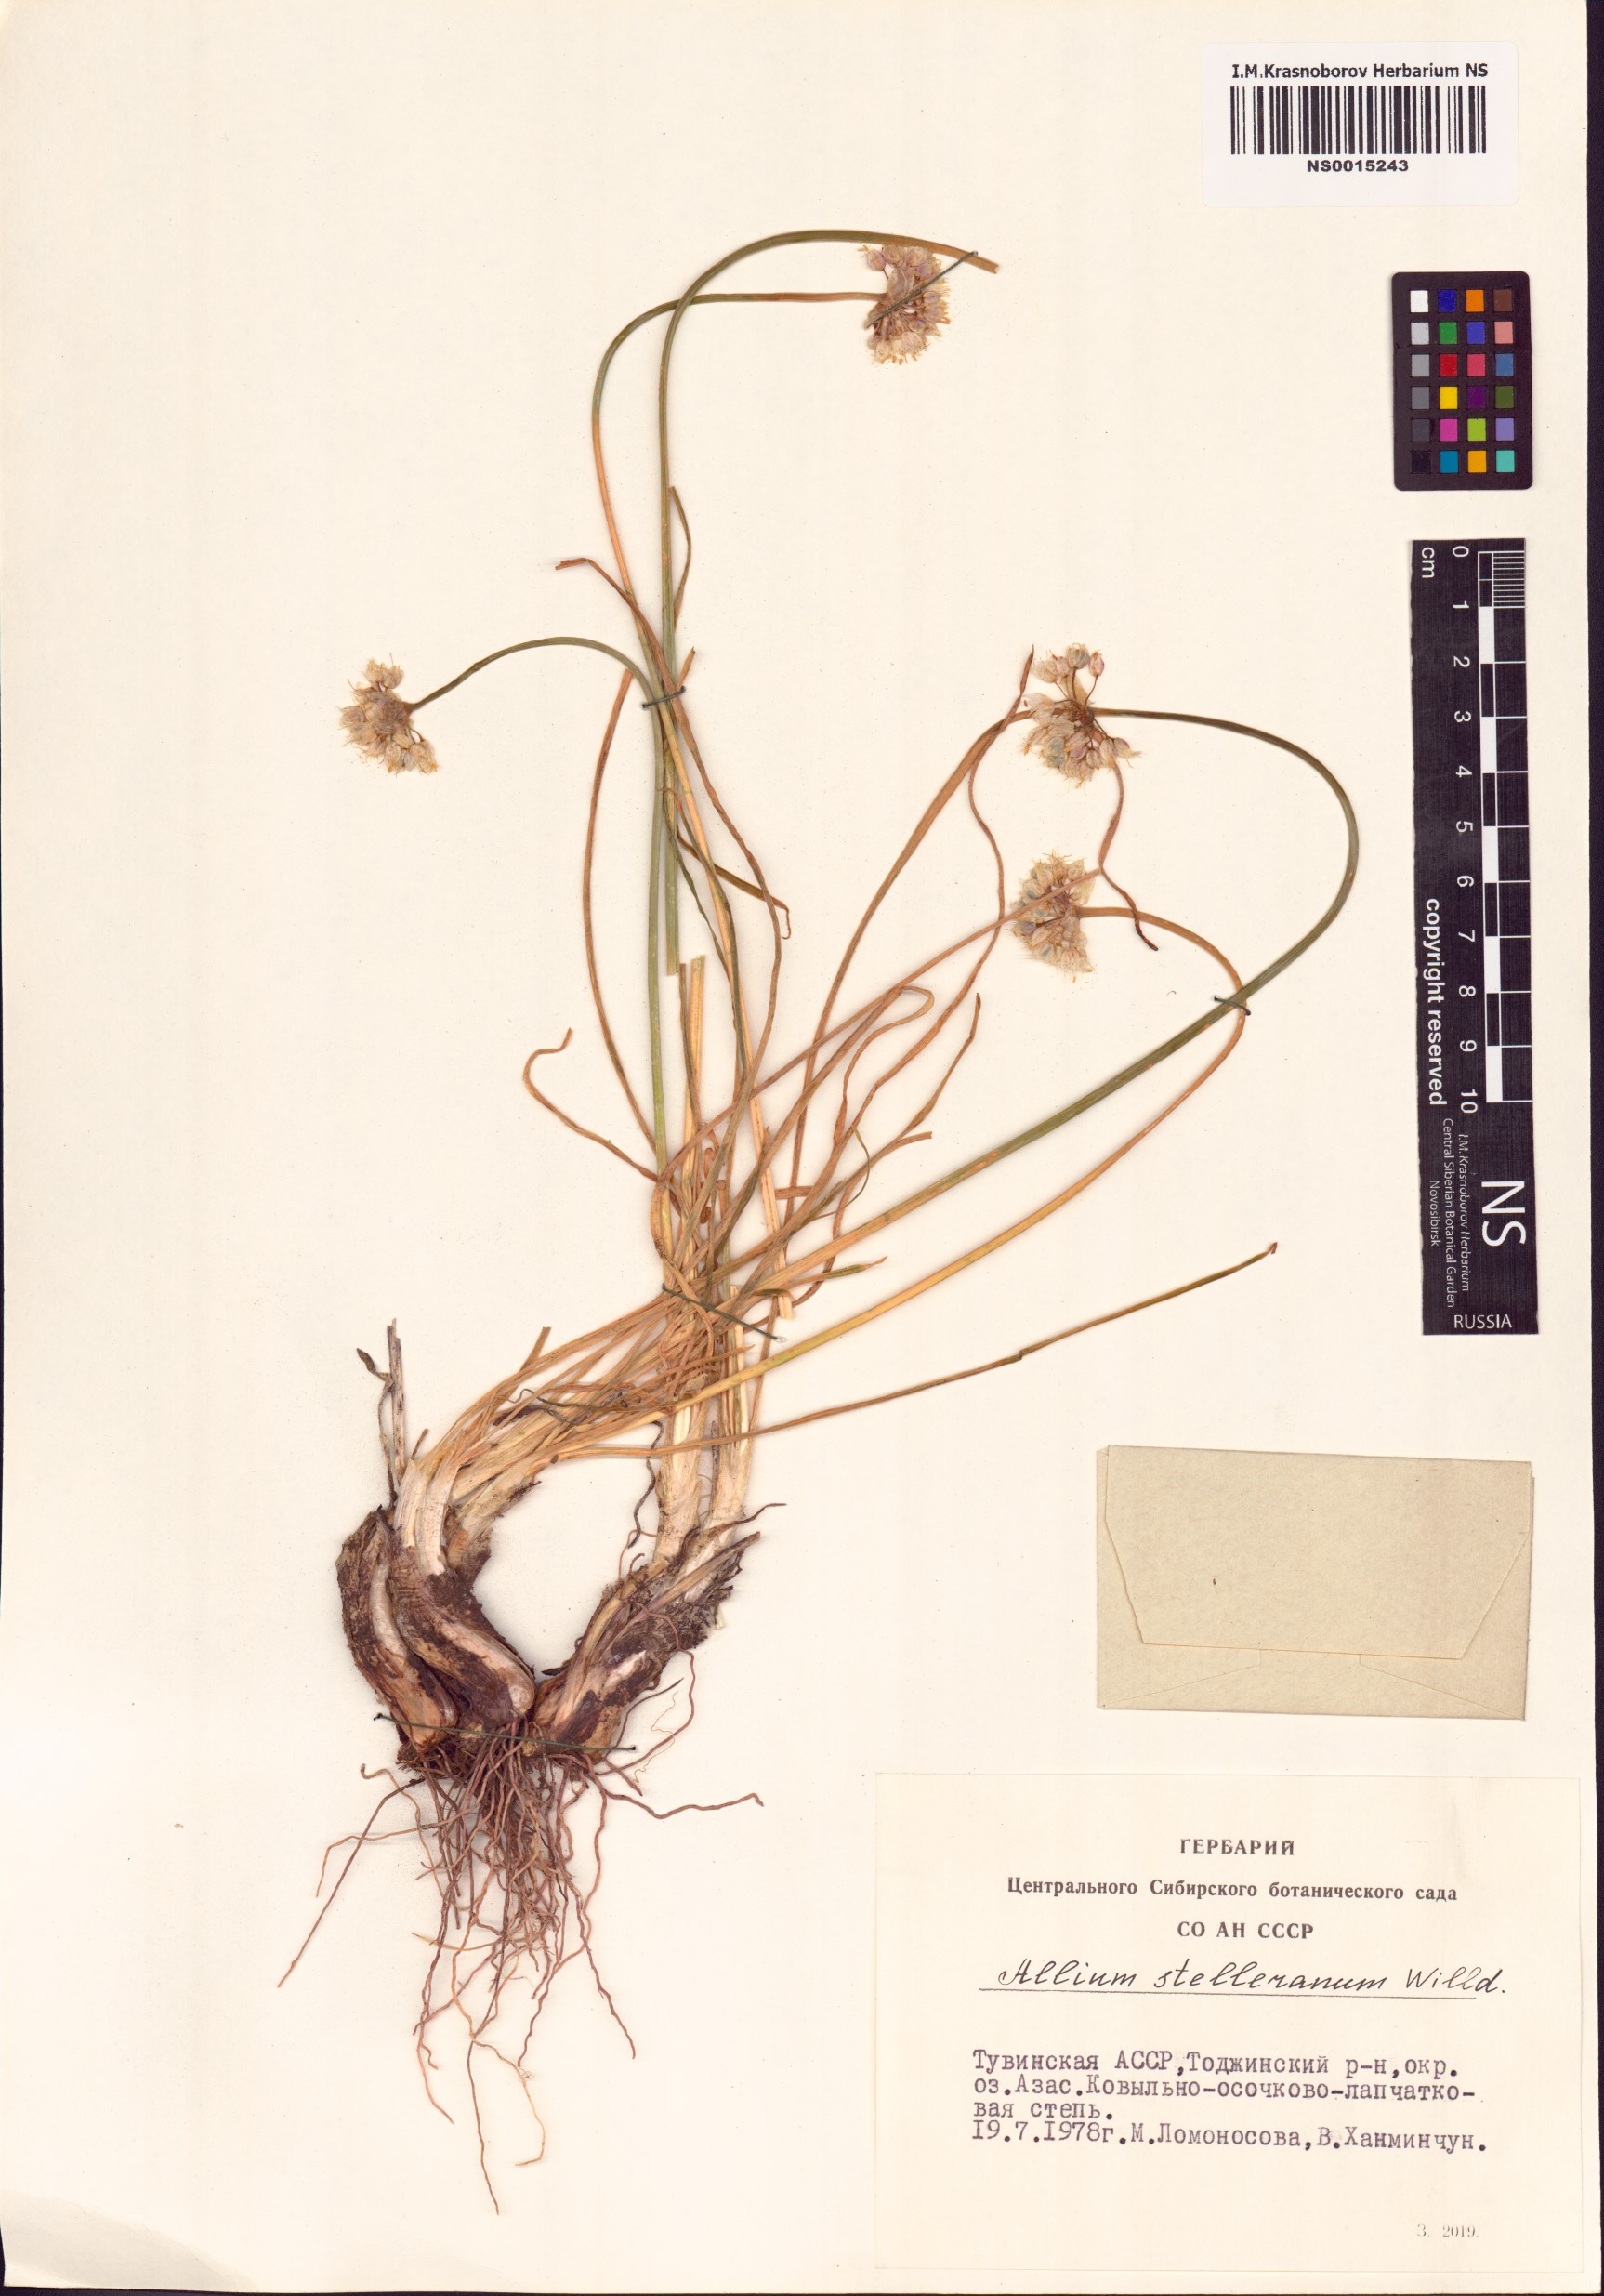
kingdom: Plantae
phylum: Tracheophyta
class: Liliopsida
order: Asparagales
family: Amaryllidaceae
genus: Allium
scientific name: Allium stellerianum
